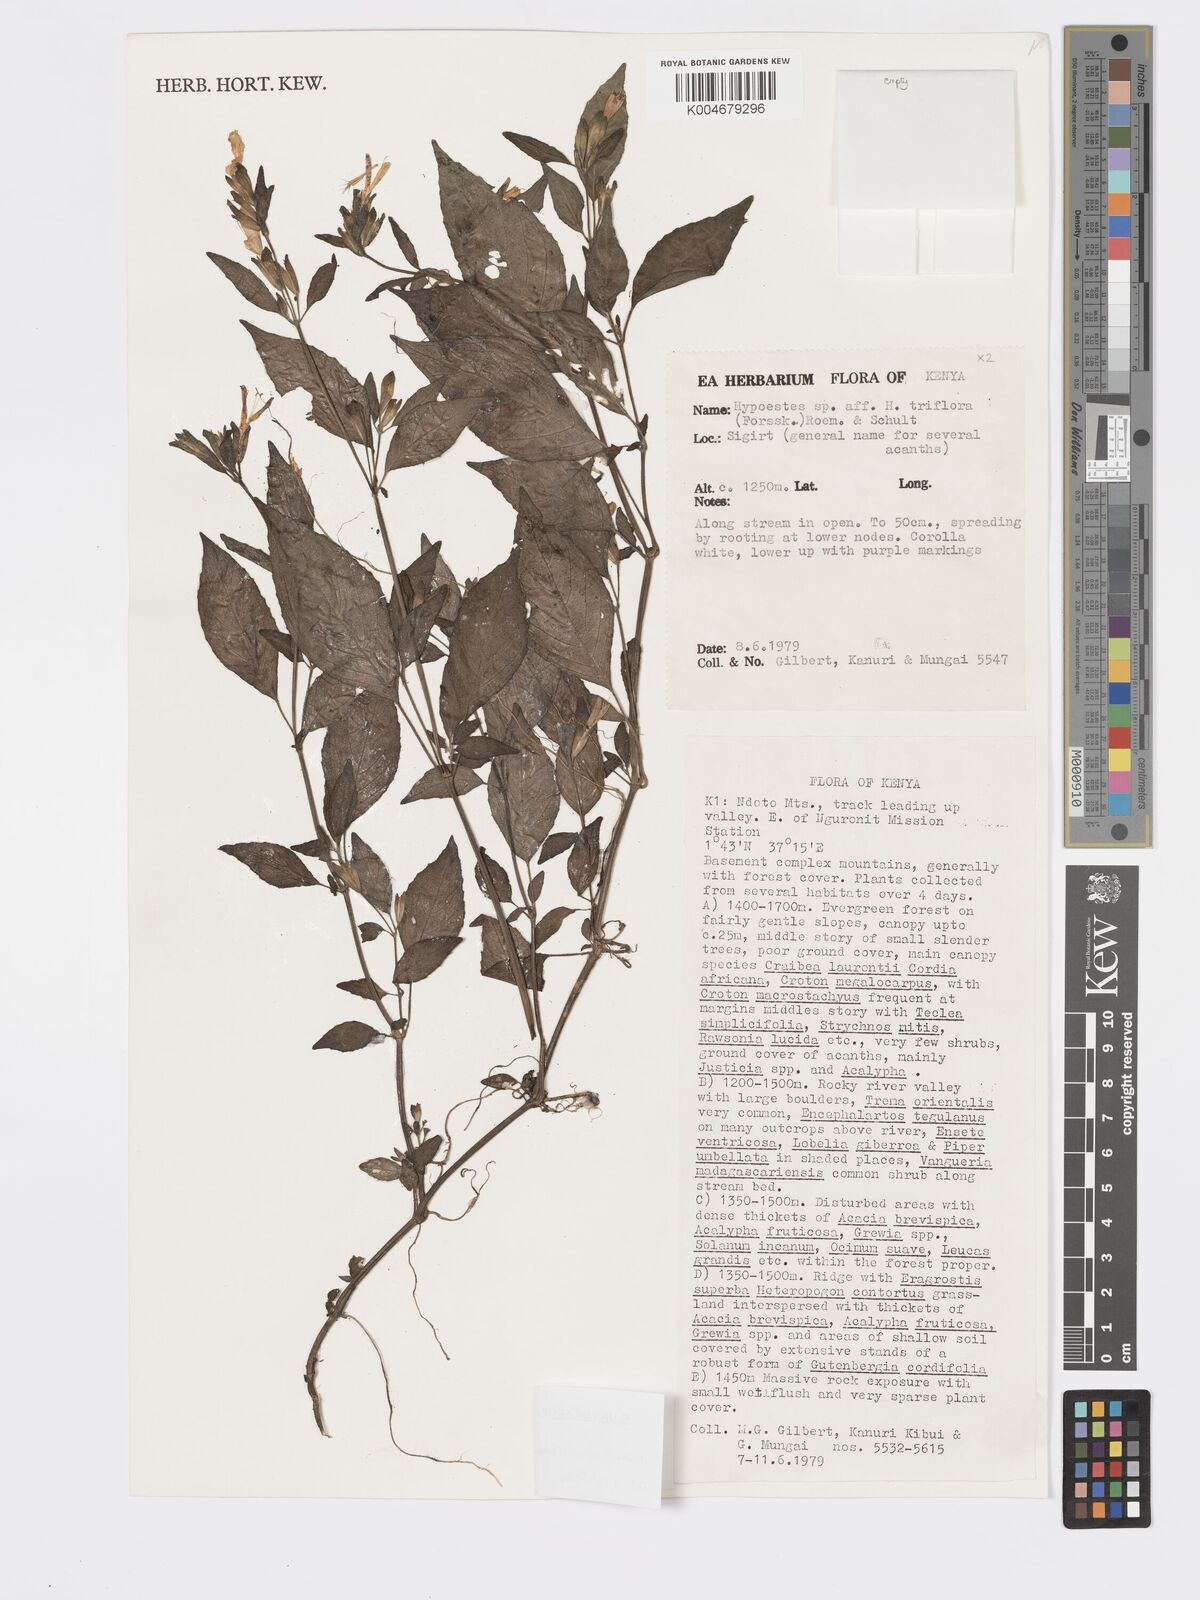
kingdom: Plantae
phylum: Tracheophyta
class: Magnoliopsida
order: Lamiales
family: Acanthaceae
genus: Hypoestes
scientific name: Hypoestes triflora
